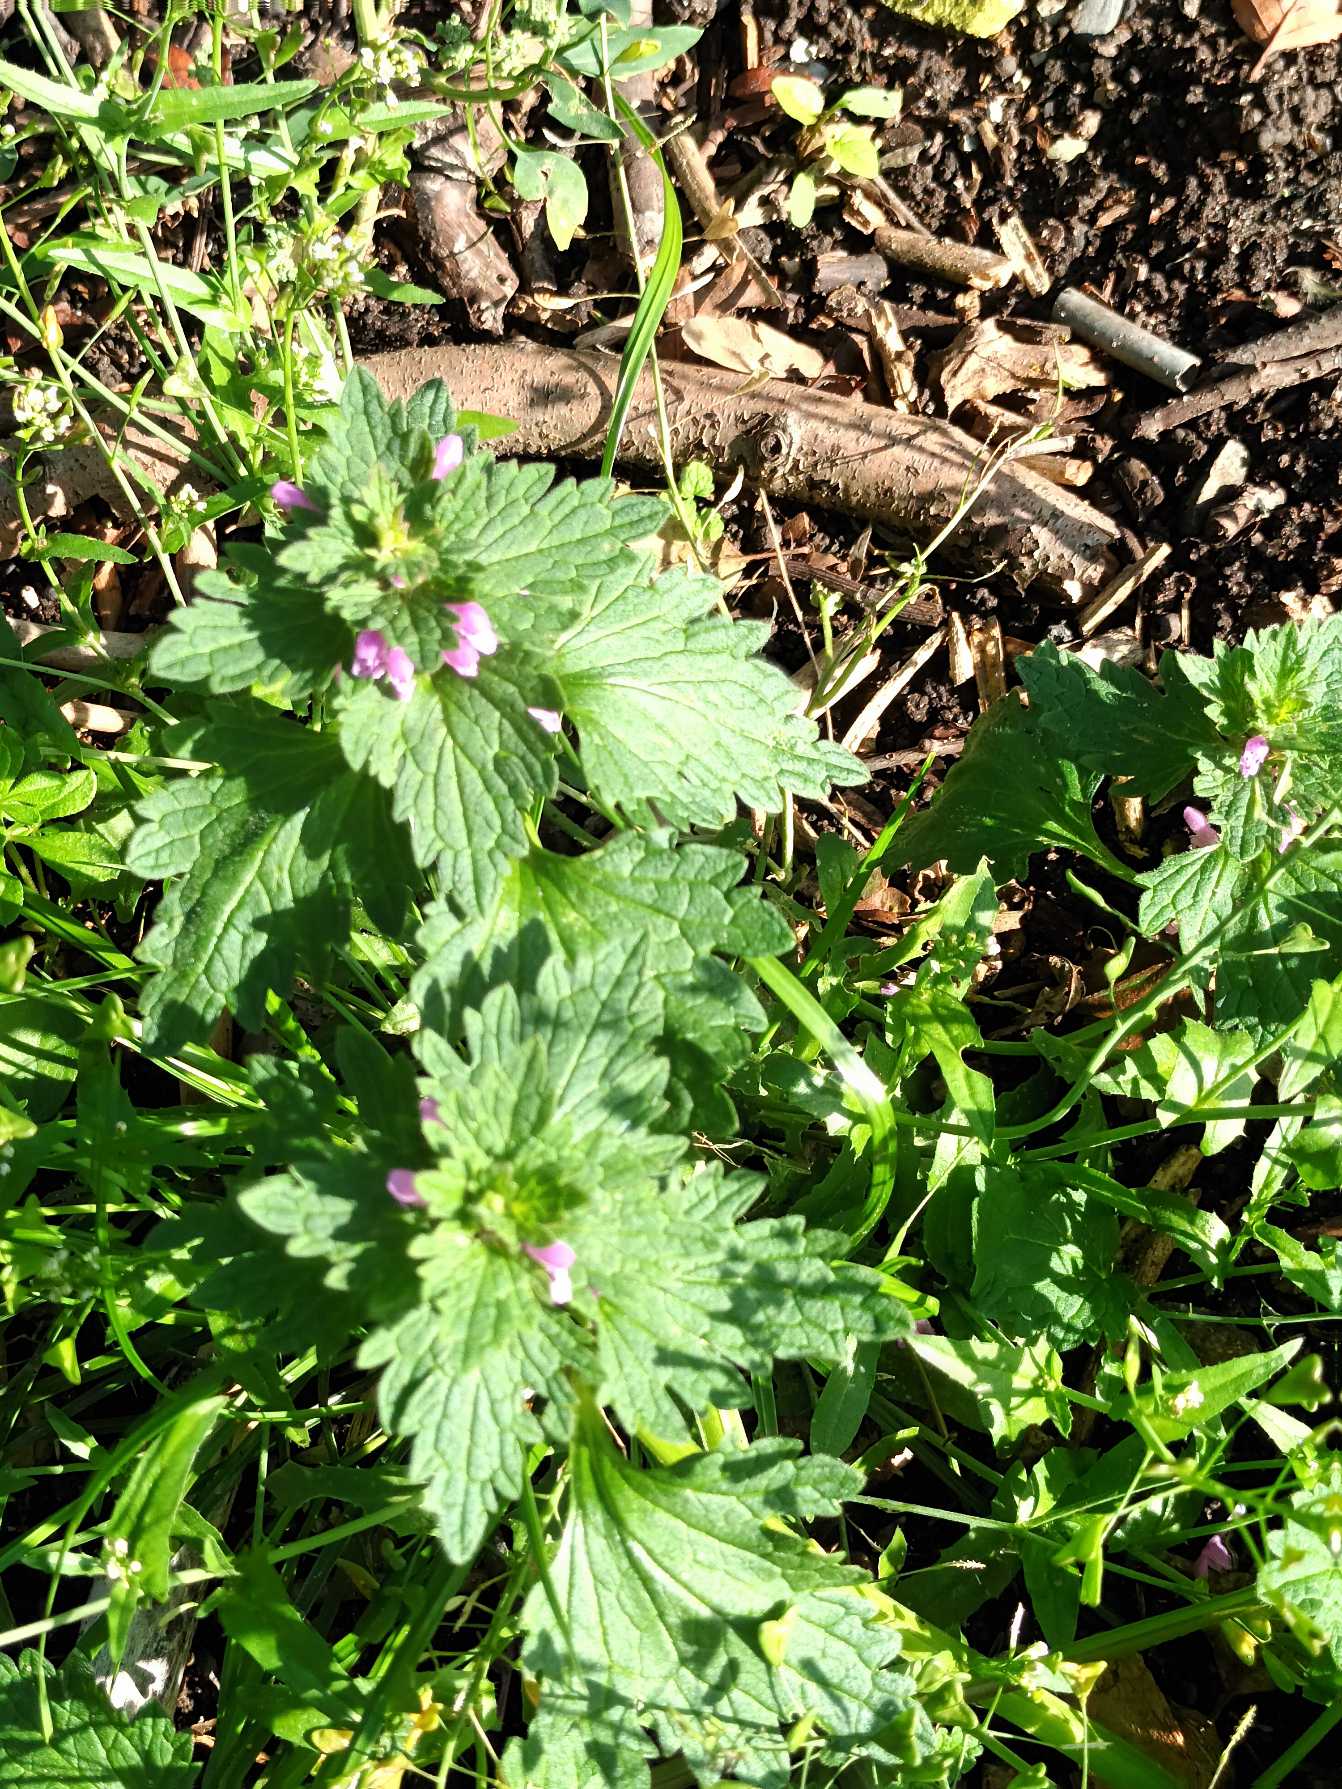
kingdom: Plantae
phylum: Tracheophyta
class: Magnoliopsida
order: Lamiales
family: Lamiaceae
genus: Lamium
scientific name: Lamium hybridum
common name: Fliget tvetand
